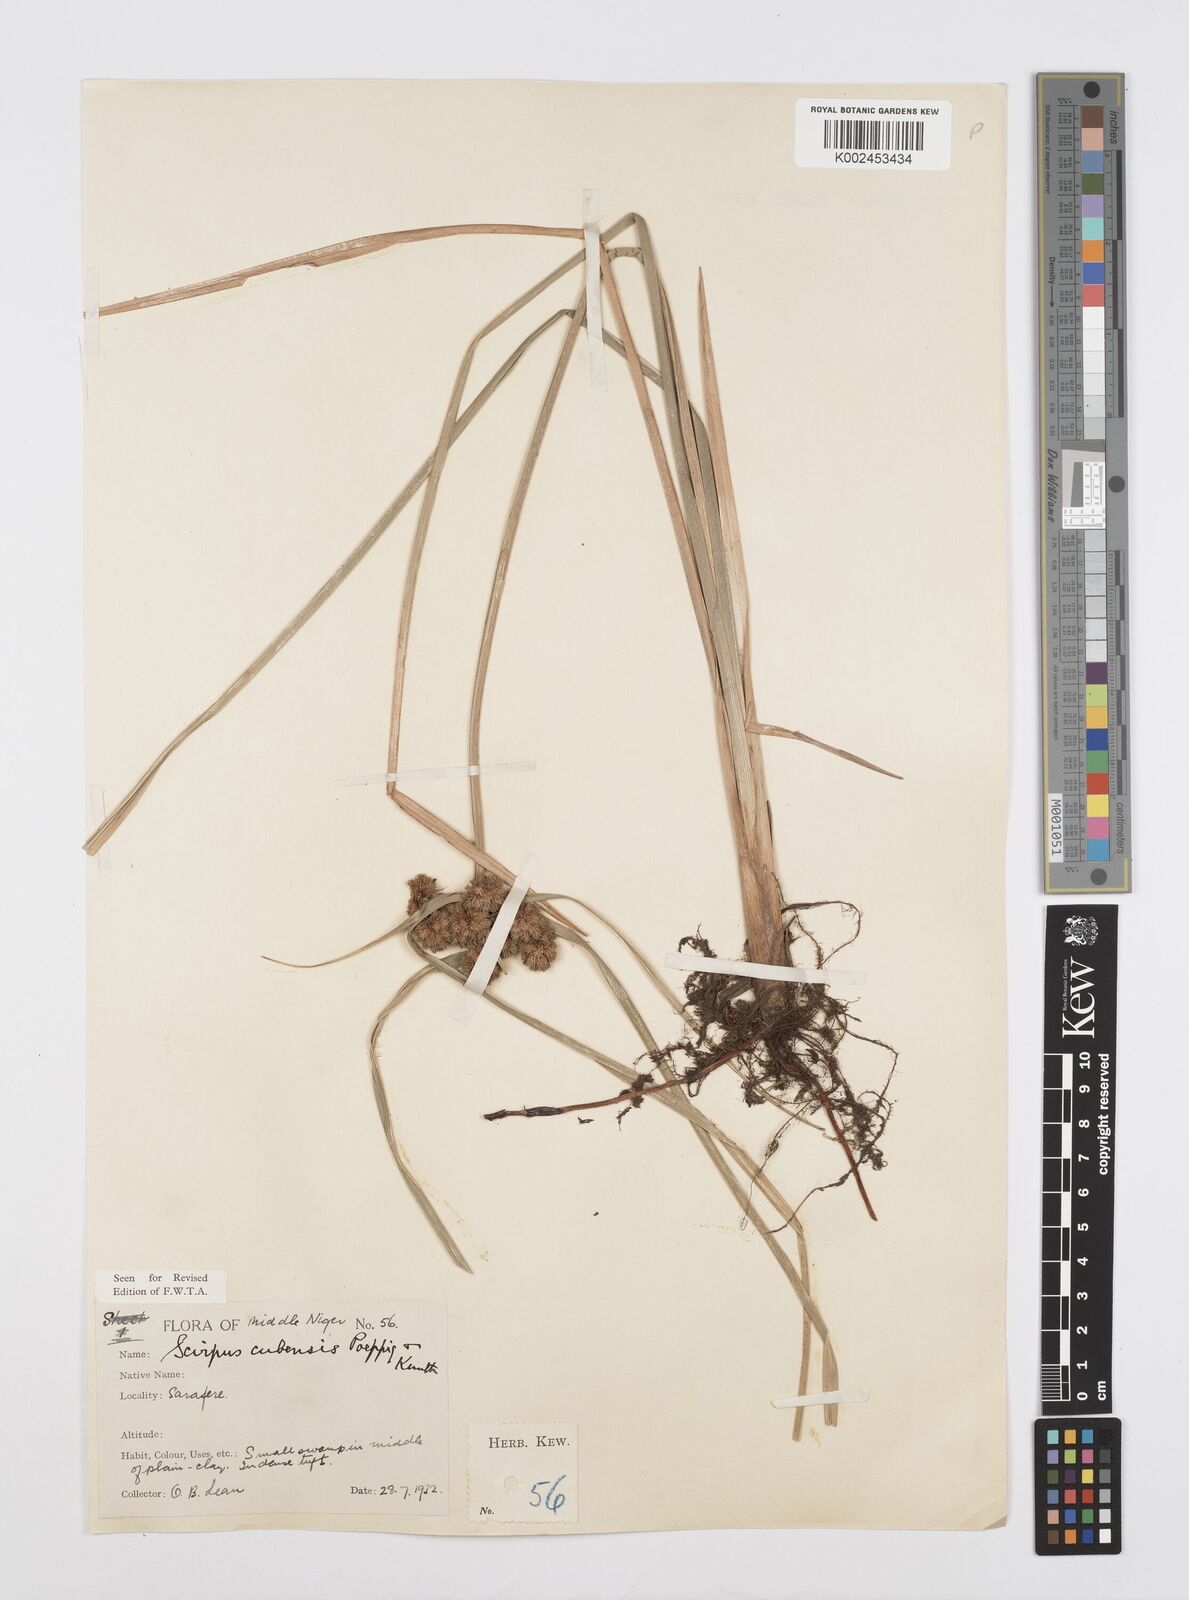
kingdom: Plantae
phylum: Tracheophyta
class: Liliopsida
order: Poales
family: Cyperaceae
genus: Cyperus
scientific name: Cyperus elegans
